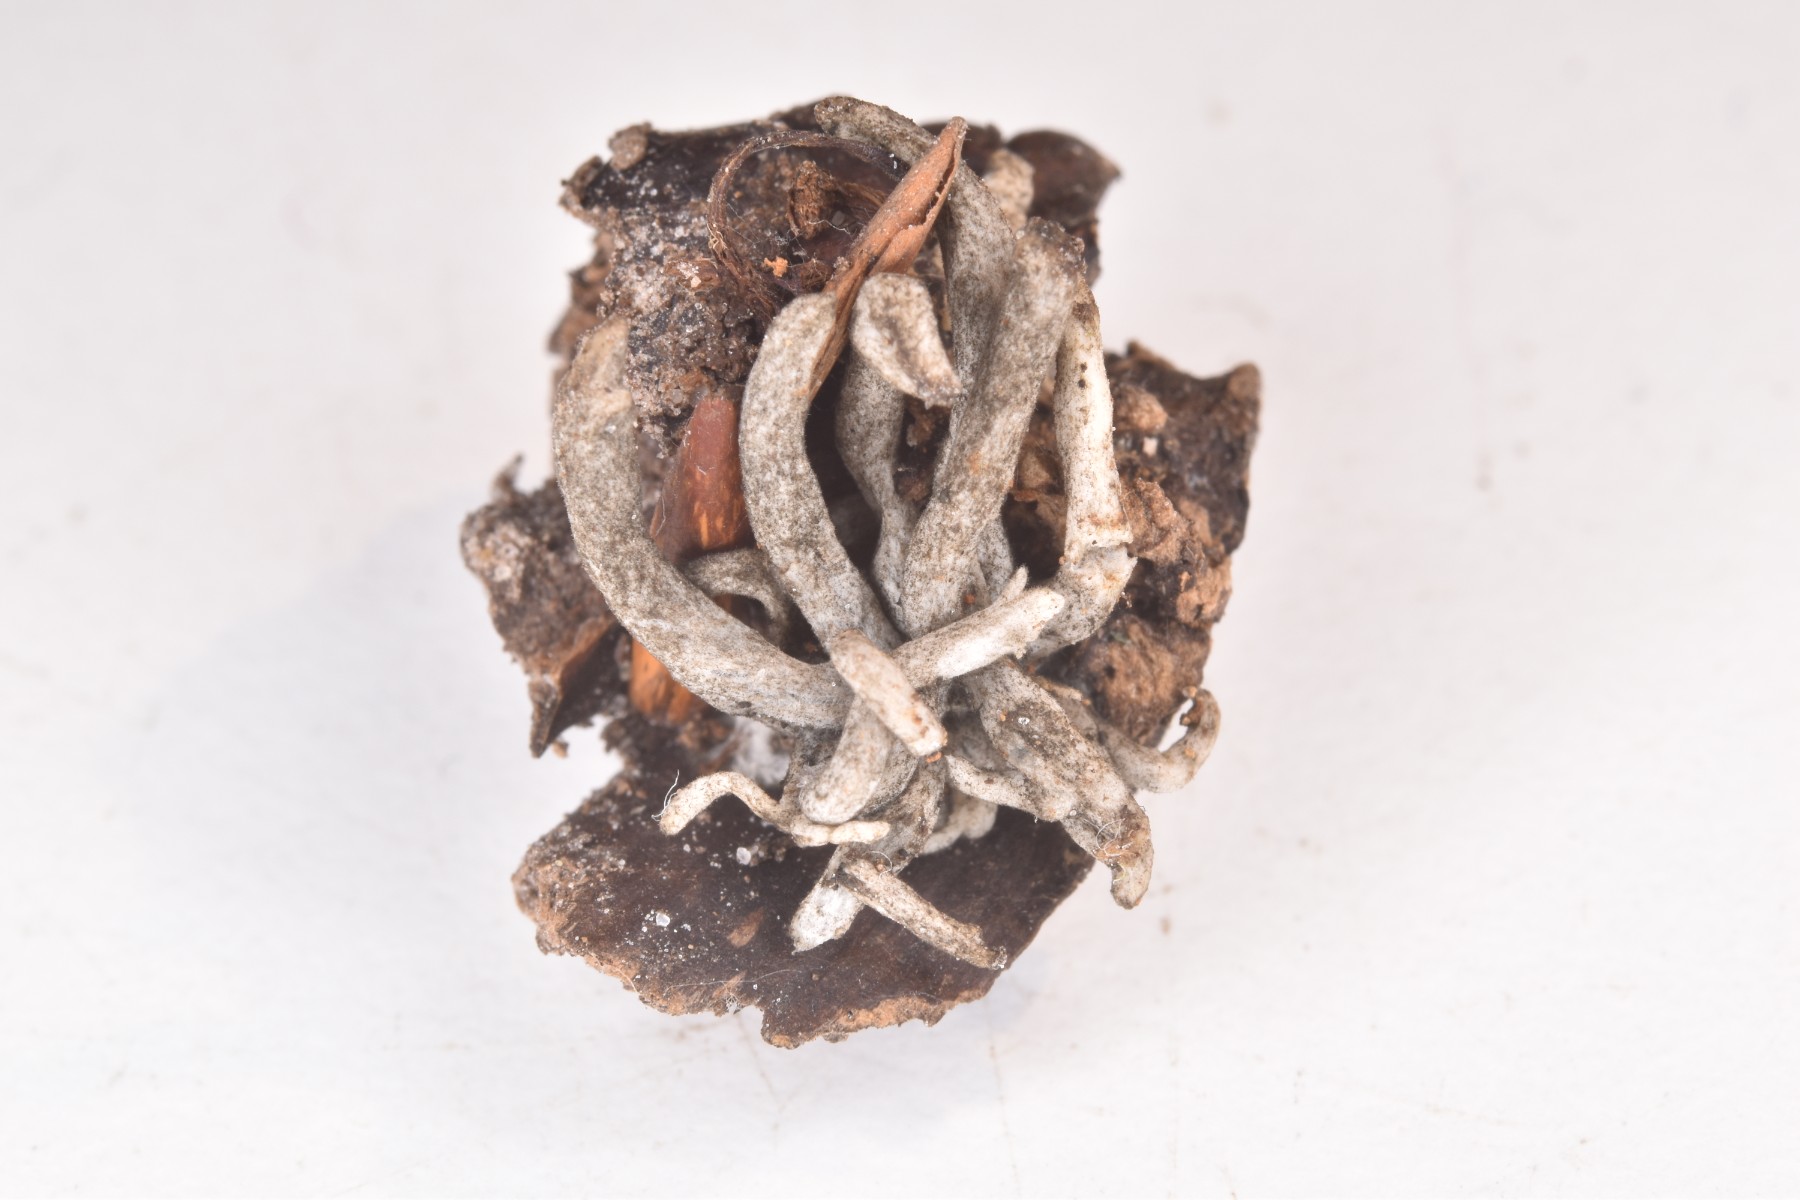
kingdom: Fungi
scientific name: Fungi
